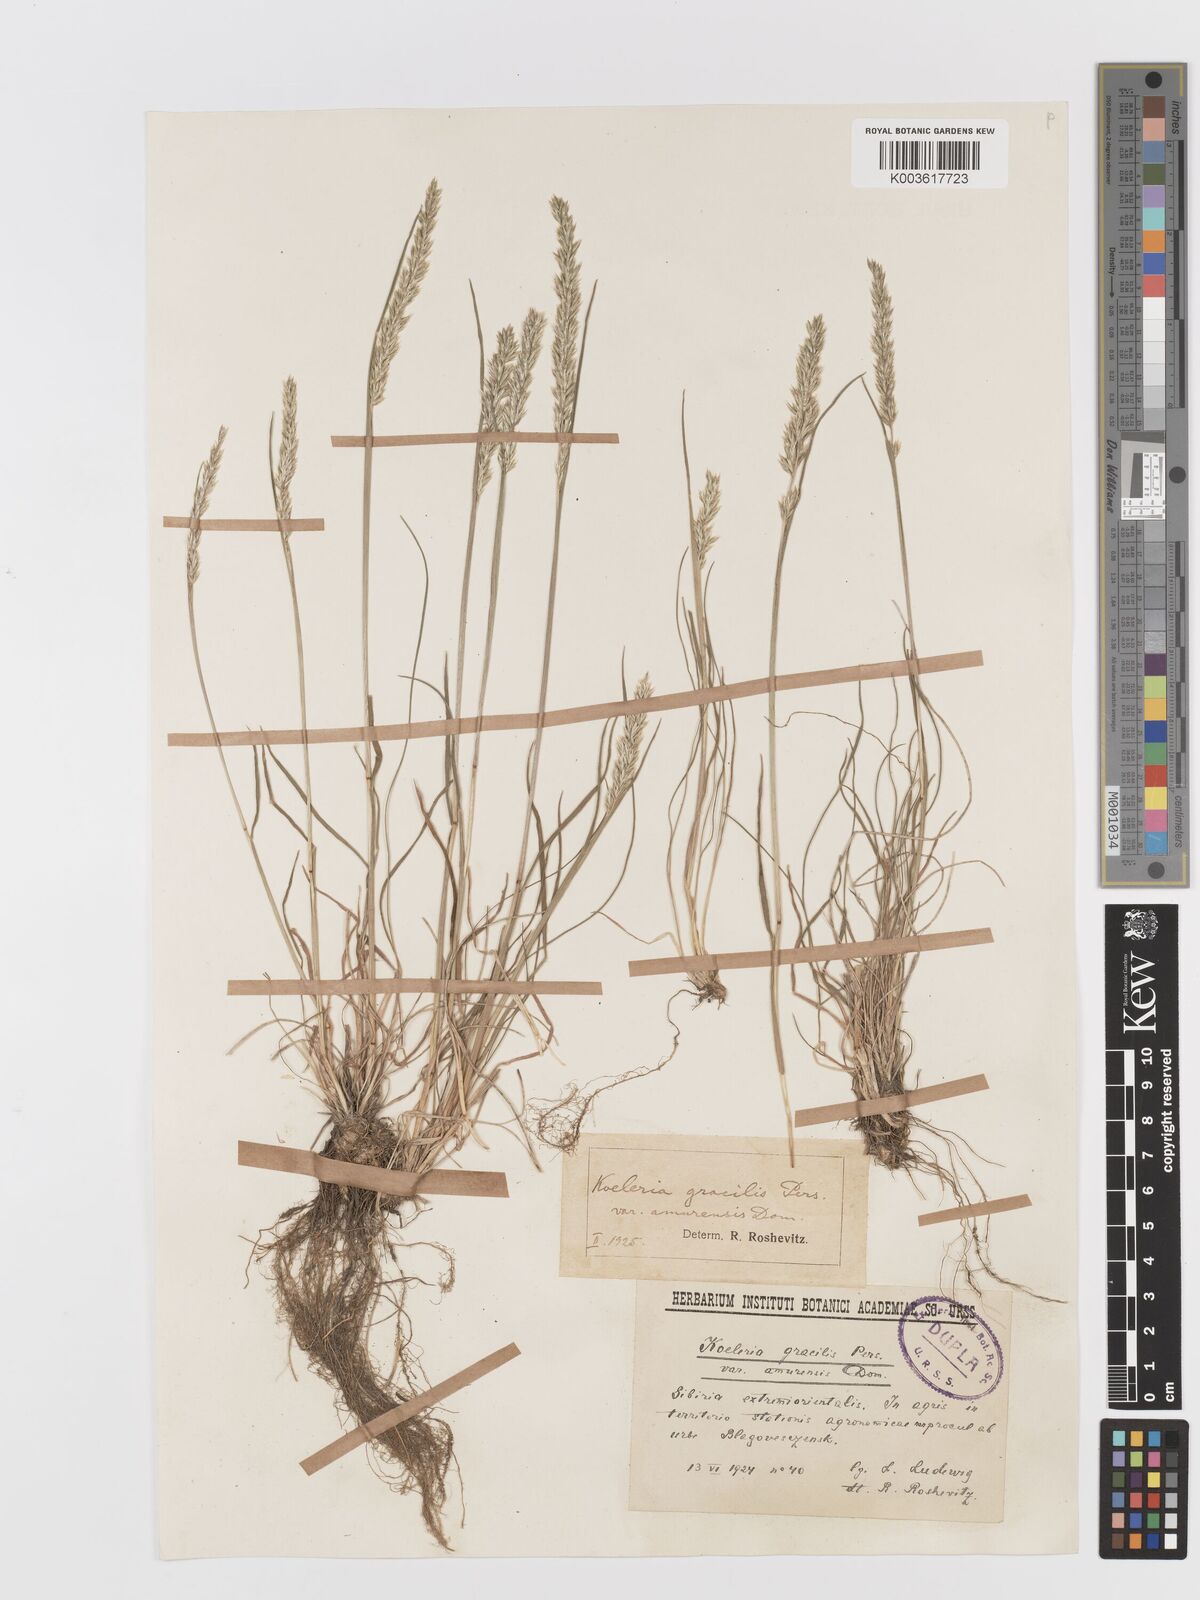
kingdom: Plantae
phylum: Tracheophyta
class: Liliopsida
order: Poales
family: Poaceae
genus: Koeleria
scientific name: Koeleria macrantha
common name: Crested hair-grass
